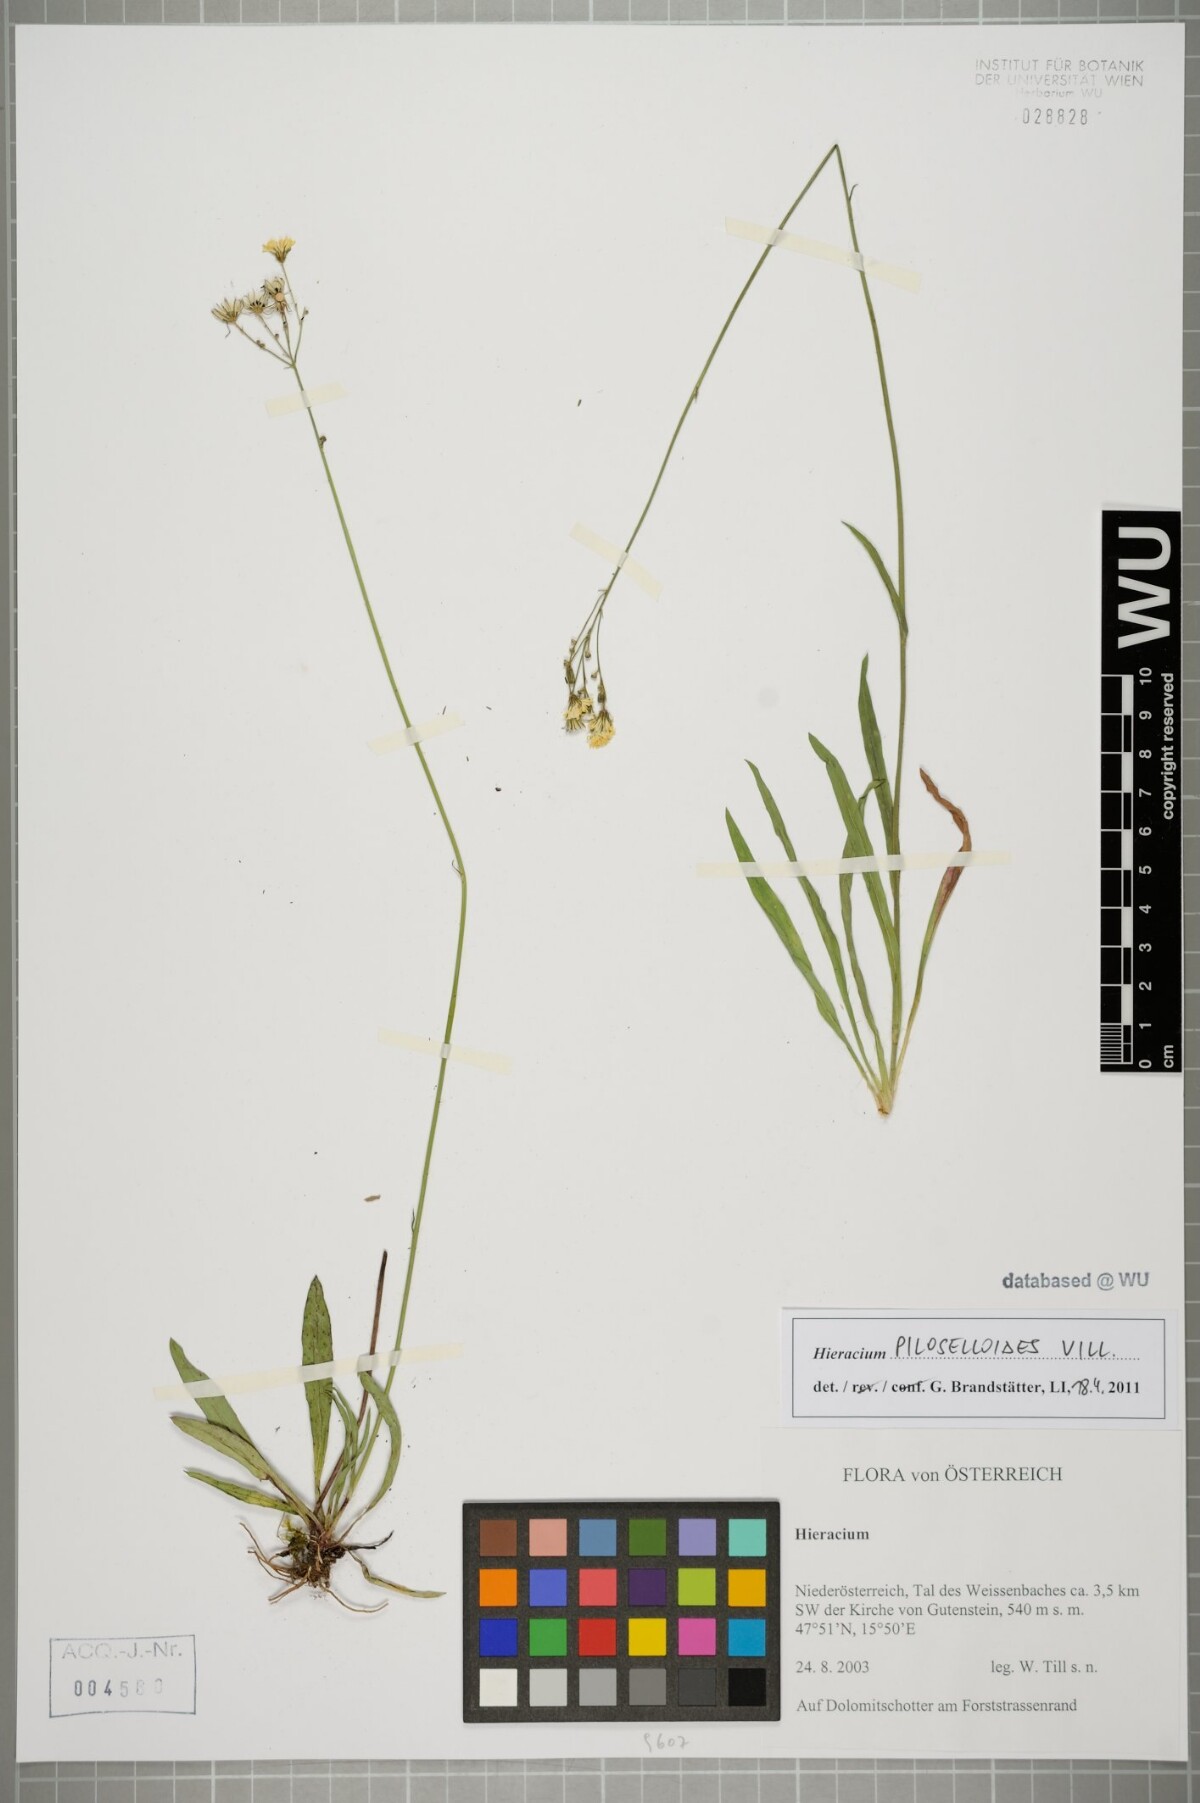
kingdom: Plantae
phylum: Tracheophyta
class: Magnoliopsida
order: Asterales
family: Asteraceae
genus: Pilosella
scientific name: Pilosella piloselloides
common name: Glaucous king-devil
